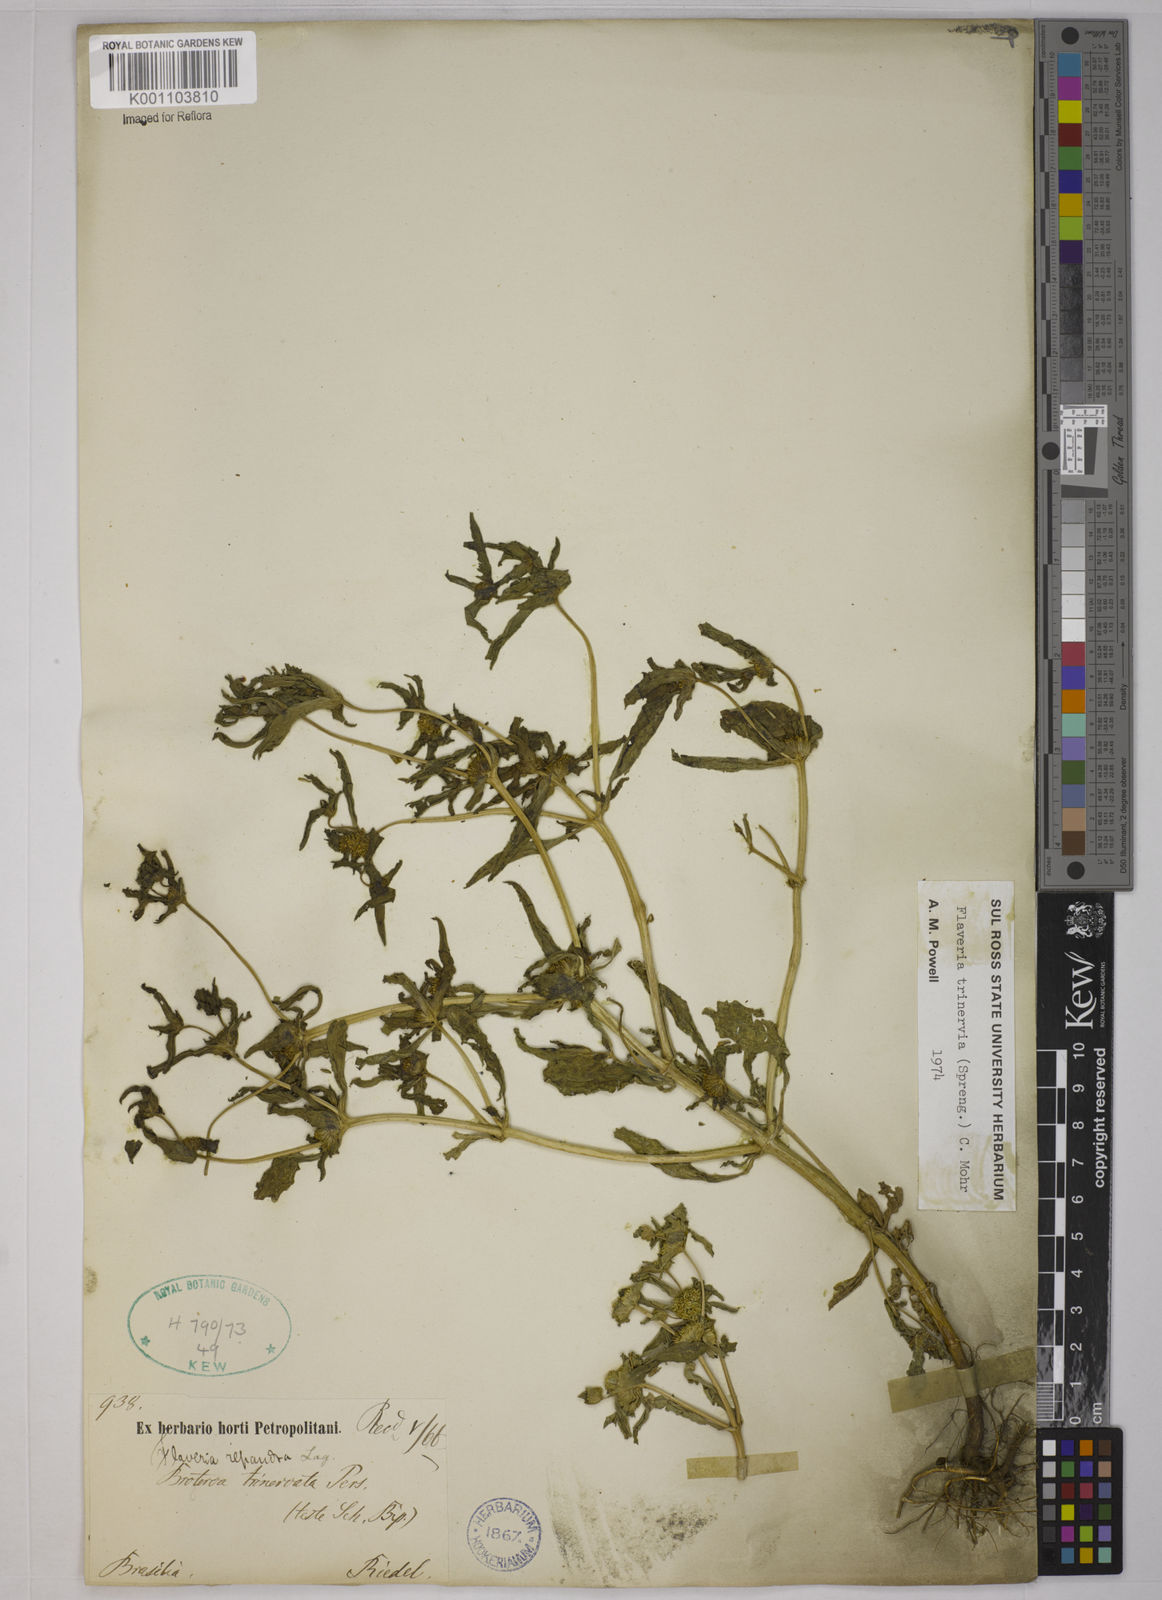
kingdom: Plantae
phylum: Tracheophyta
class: Magnoliopsida
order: Asterales
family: Asteraceae
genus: Flaveria
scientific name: Flaveria trinervia
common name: Clustered yellowtops
